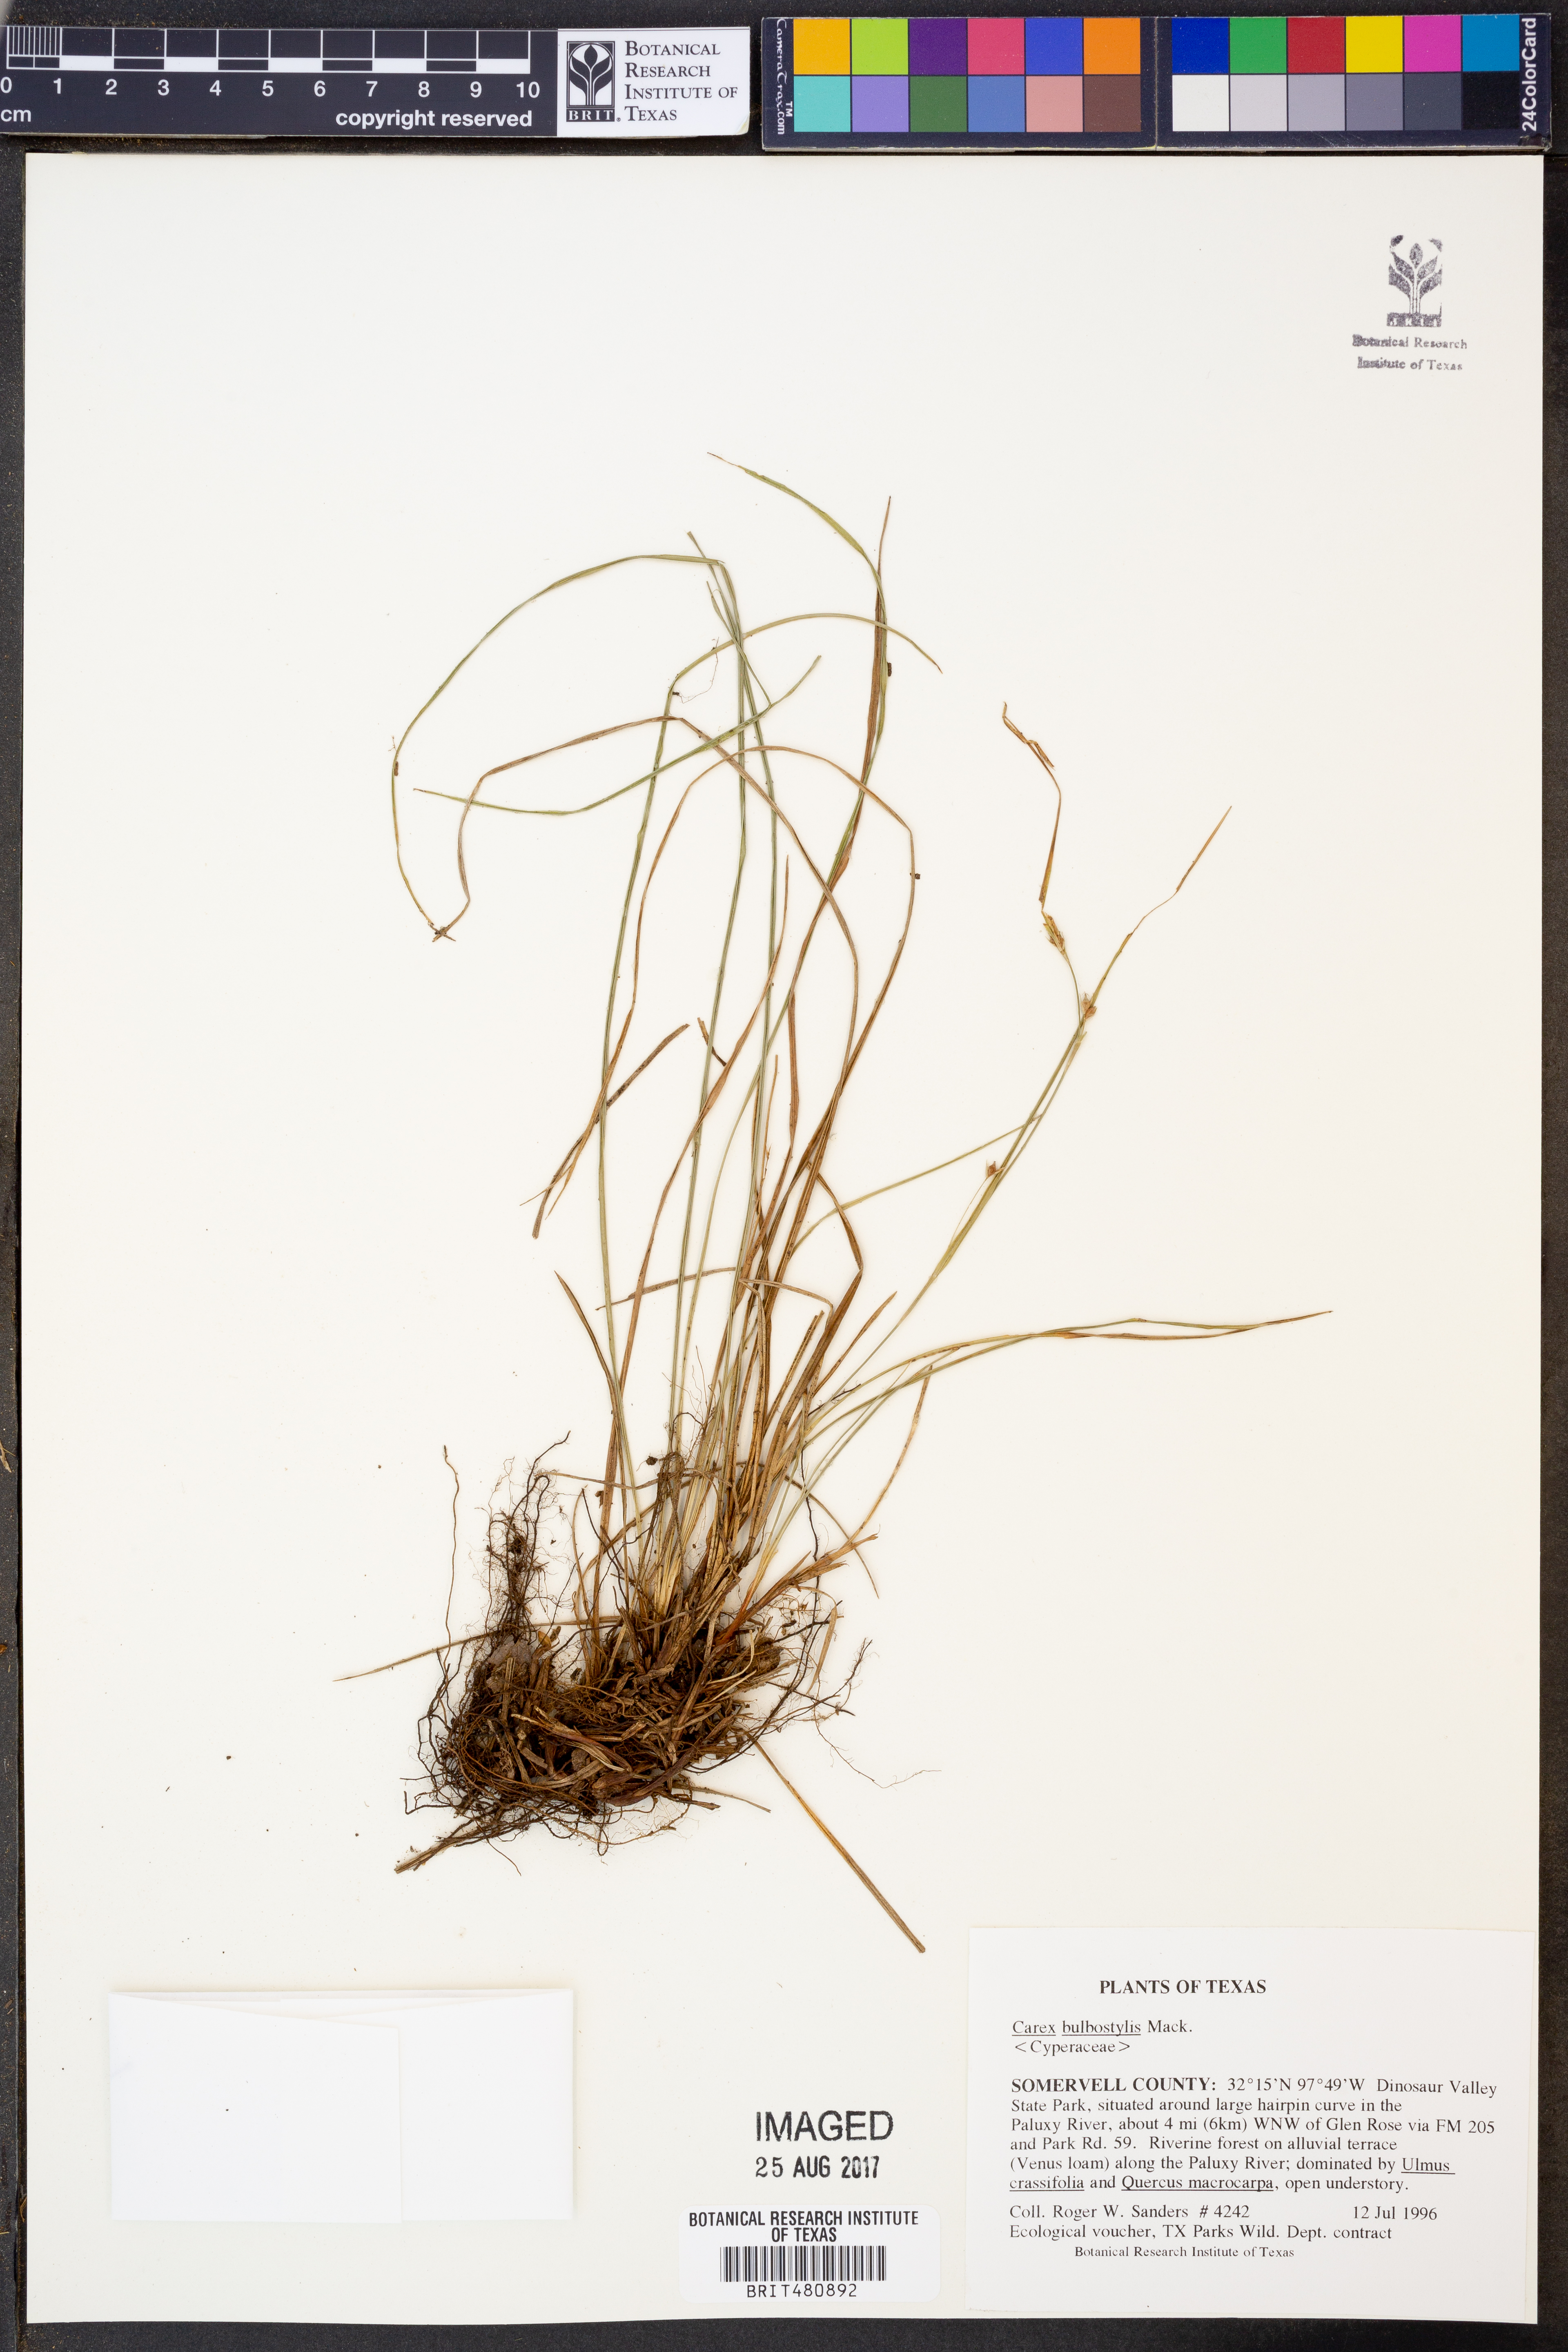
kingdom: Plantae
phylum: Tracheophyta
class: Liliopsida
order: Poales
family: Cyperaceae
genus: Carex
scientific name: Carex bulbostylis
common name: Eastern narrowleaf sedge
